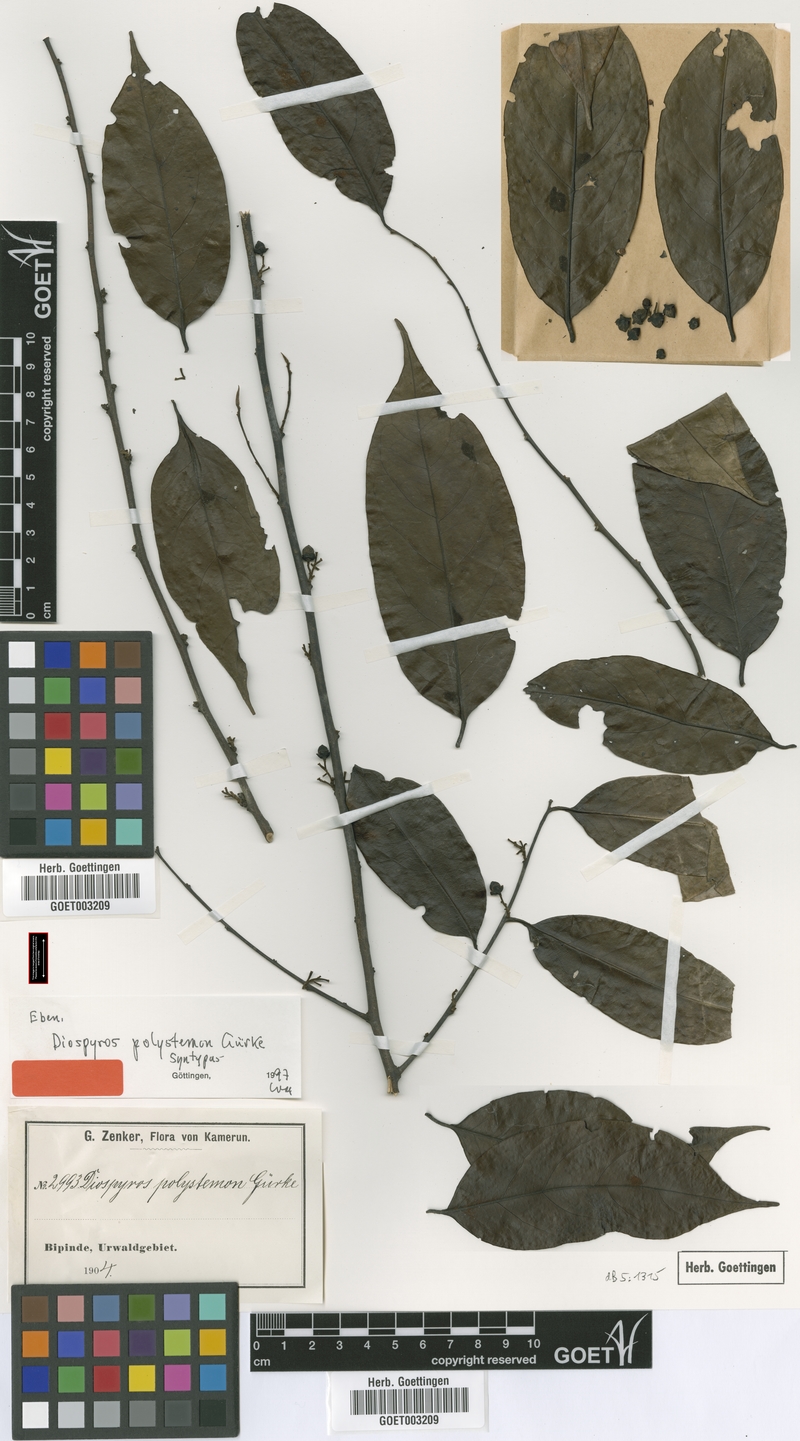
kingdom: Plantae
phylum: Tracheophyta
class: Magnoliopsida
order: Ericales
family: Ebenaceae
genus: Diospyros
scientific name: Diospyros polystemon
